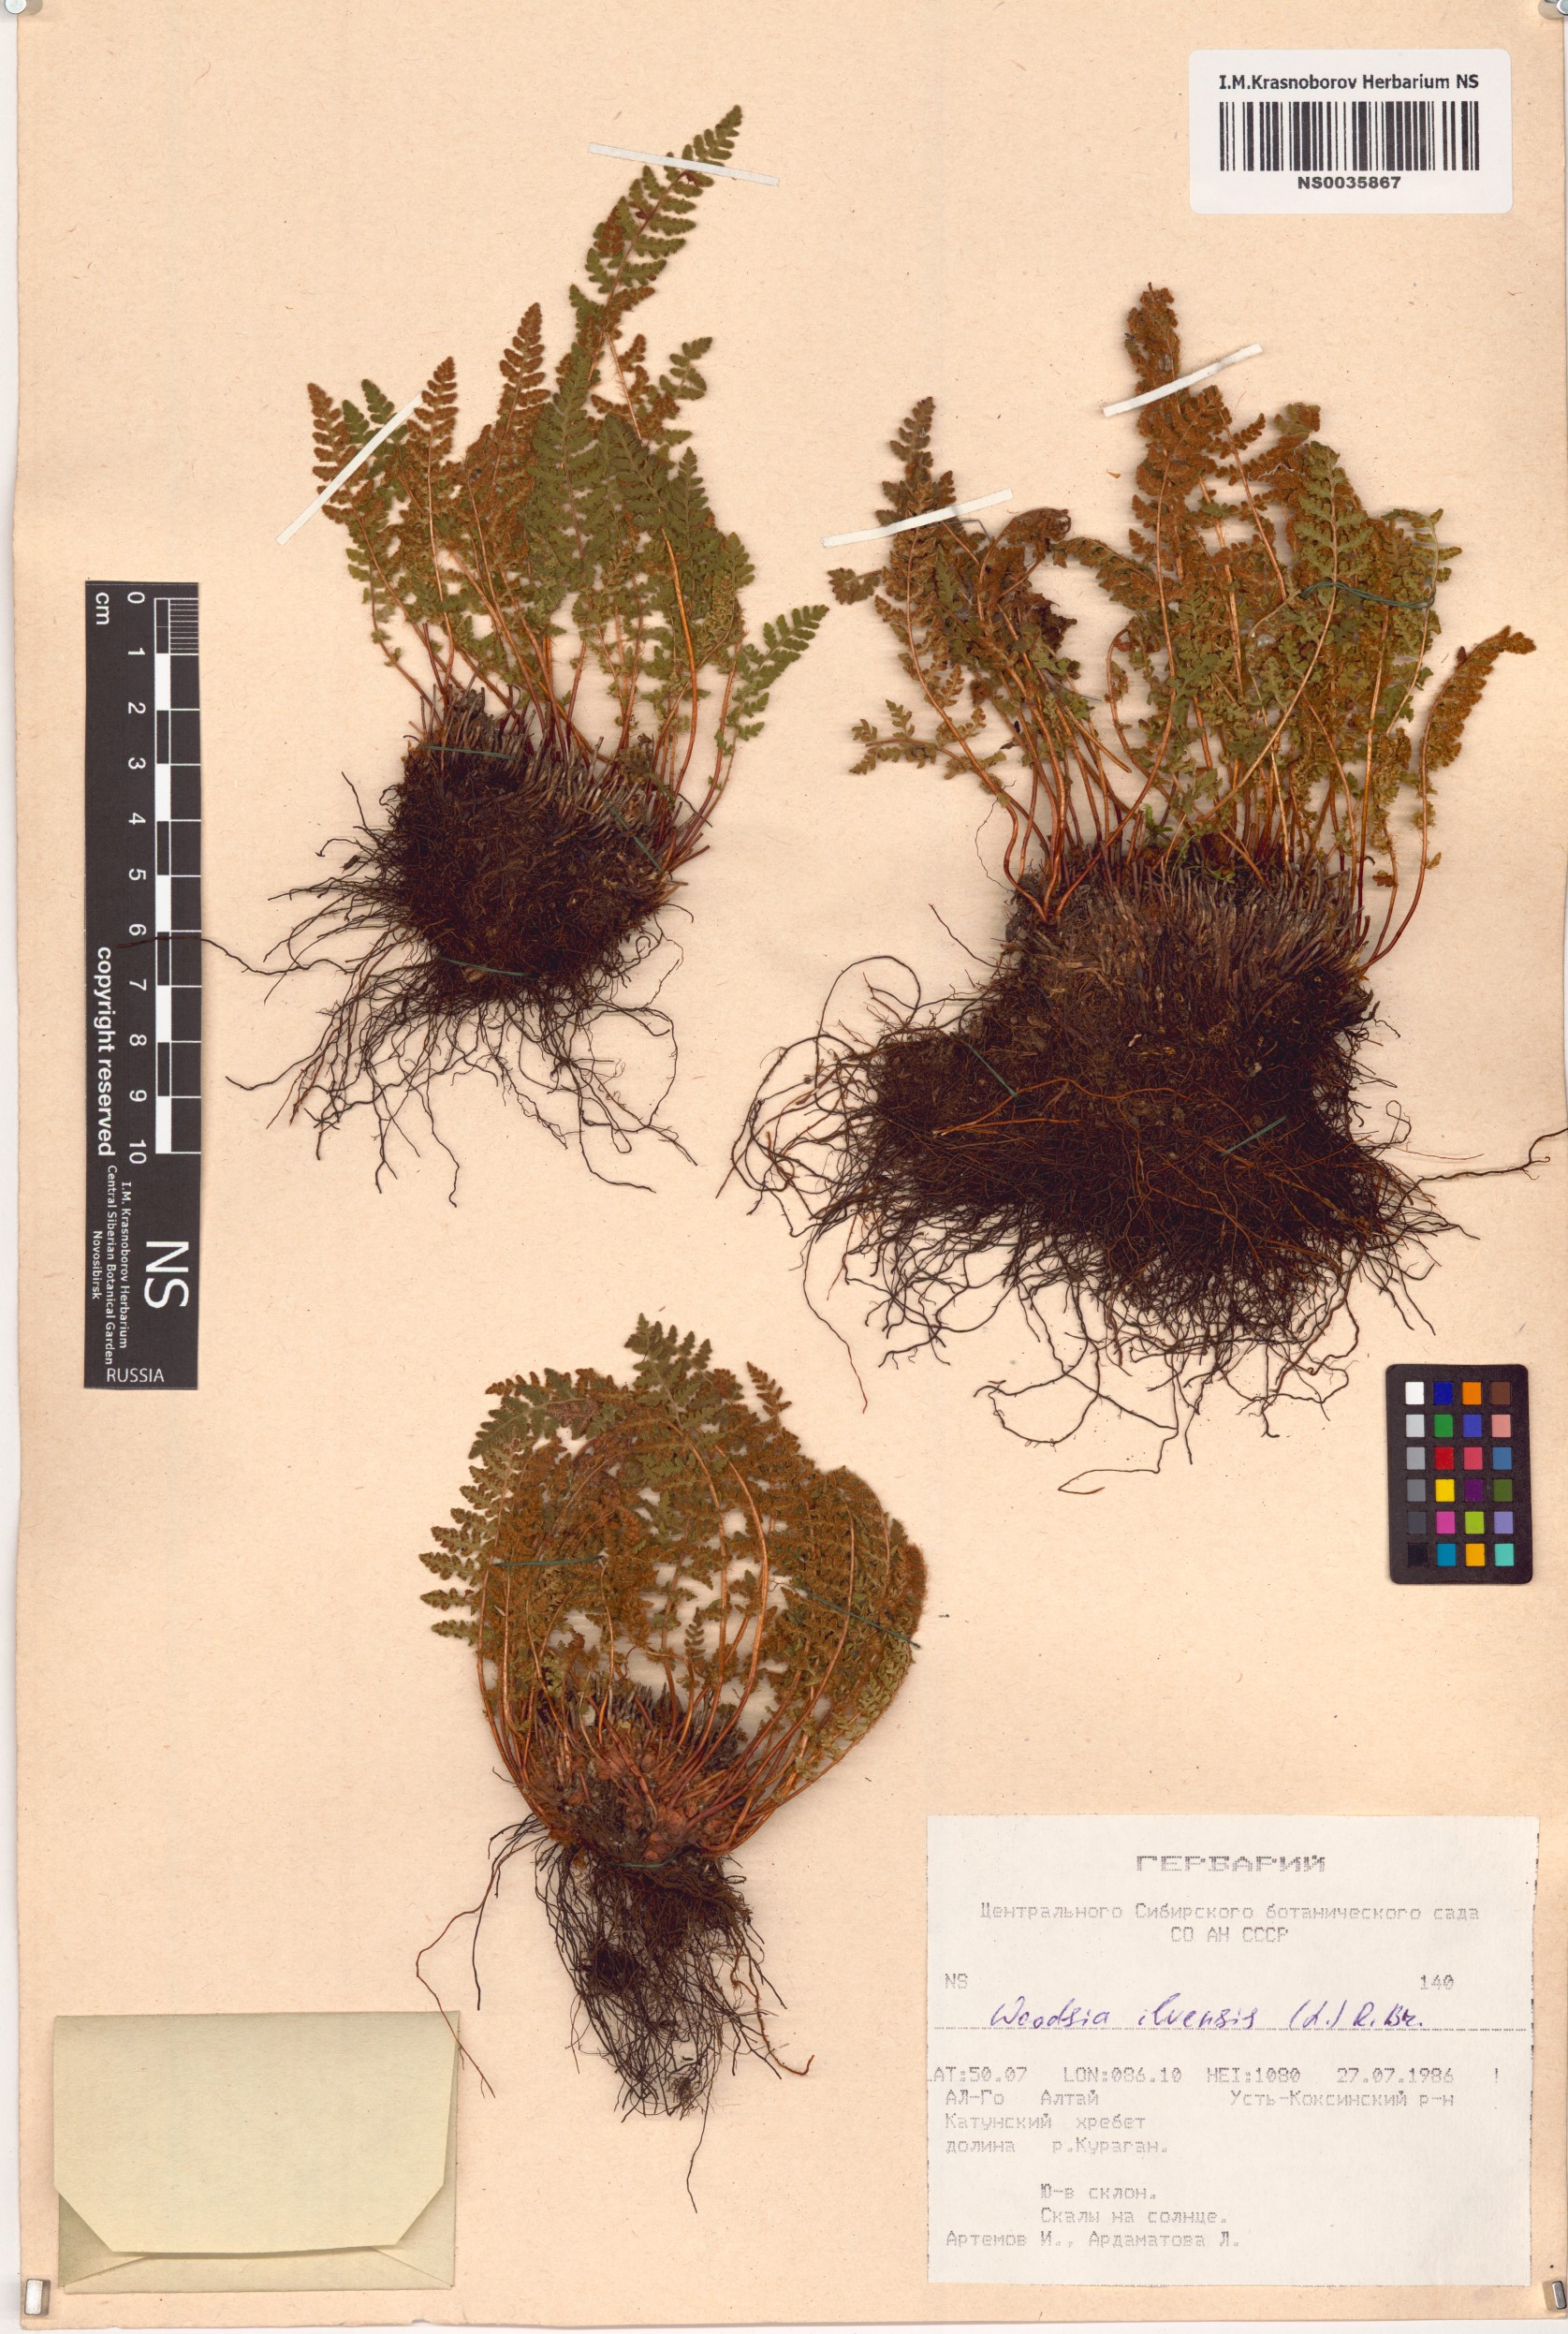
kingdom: Plantae
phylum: Tracheophyta
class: Polypodiopsida
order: Polypodiales
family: Woodsiaceae
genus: Woodsia
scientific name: Woodsia ilvensis
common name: Fragrant woodsia
